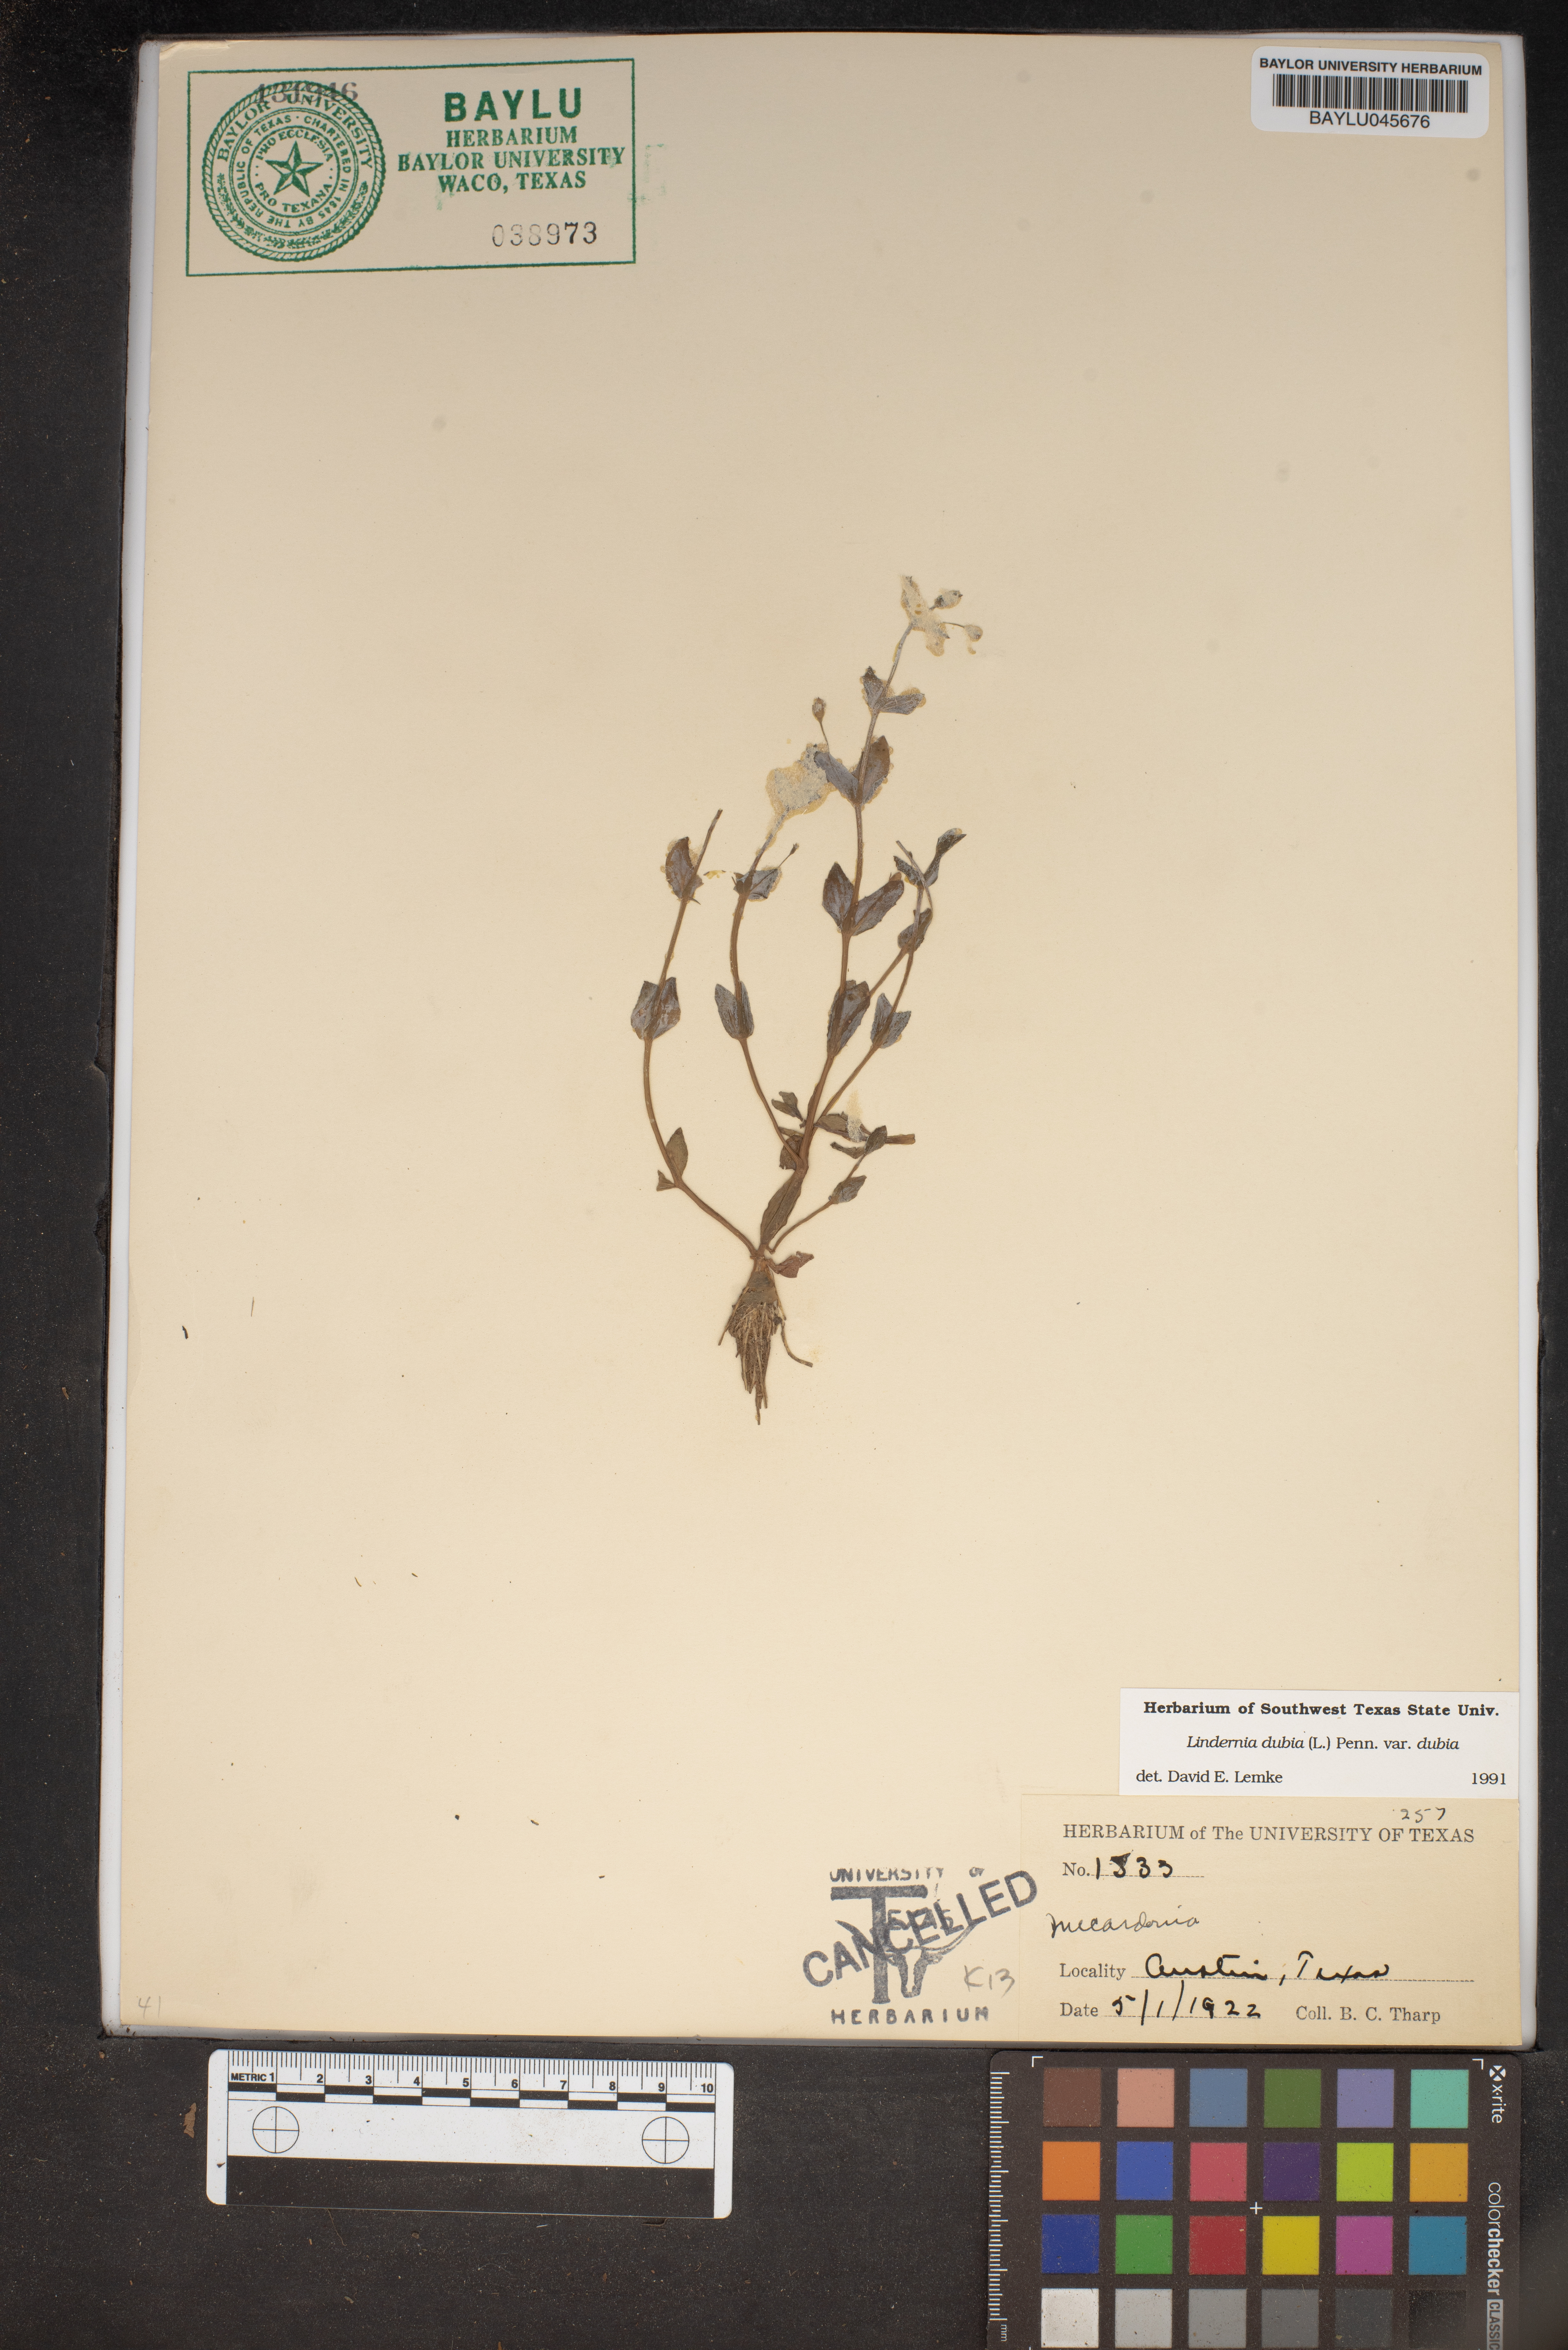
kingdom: Plantae
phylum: Tracheophyta
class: Magnoliopsida
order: Lamiales
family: Linderniaceae
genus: Lindernia
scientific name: Lindernia dubia
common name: Annual false pimpernel
